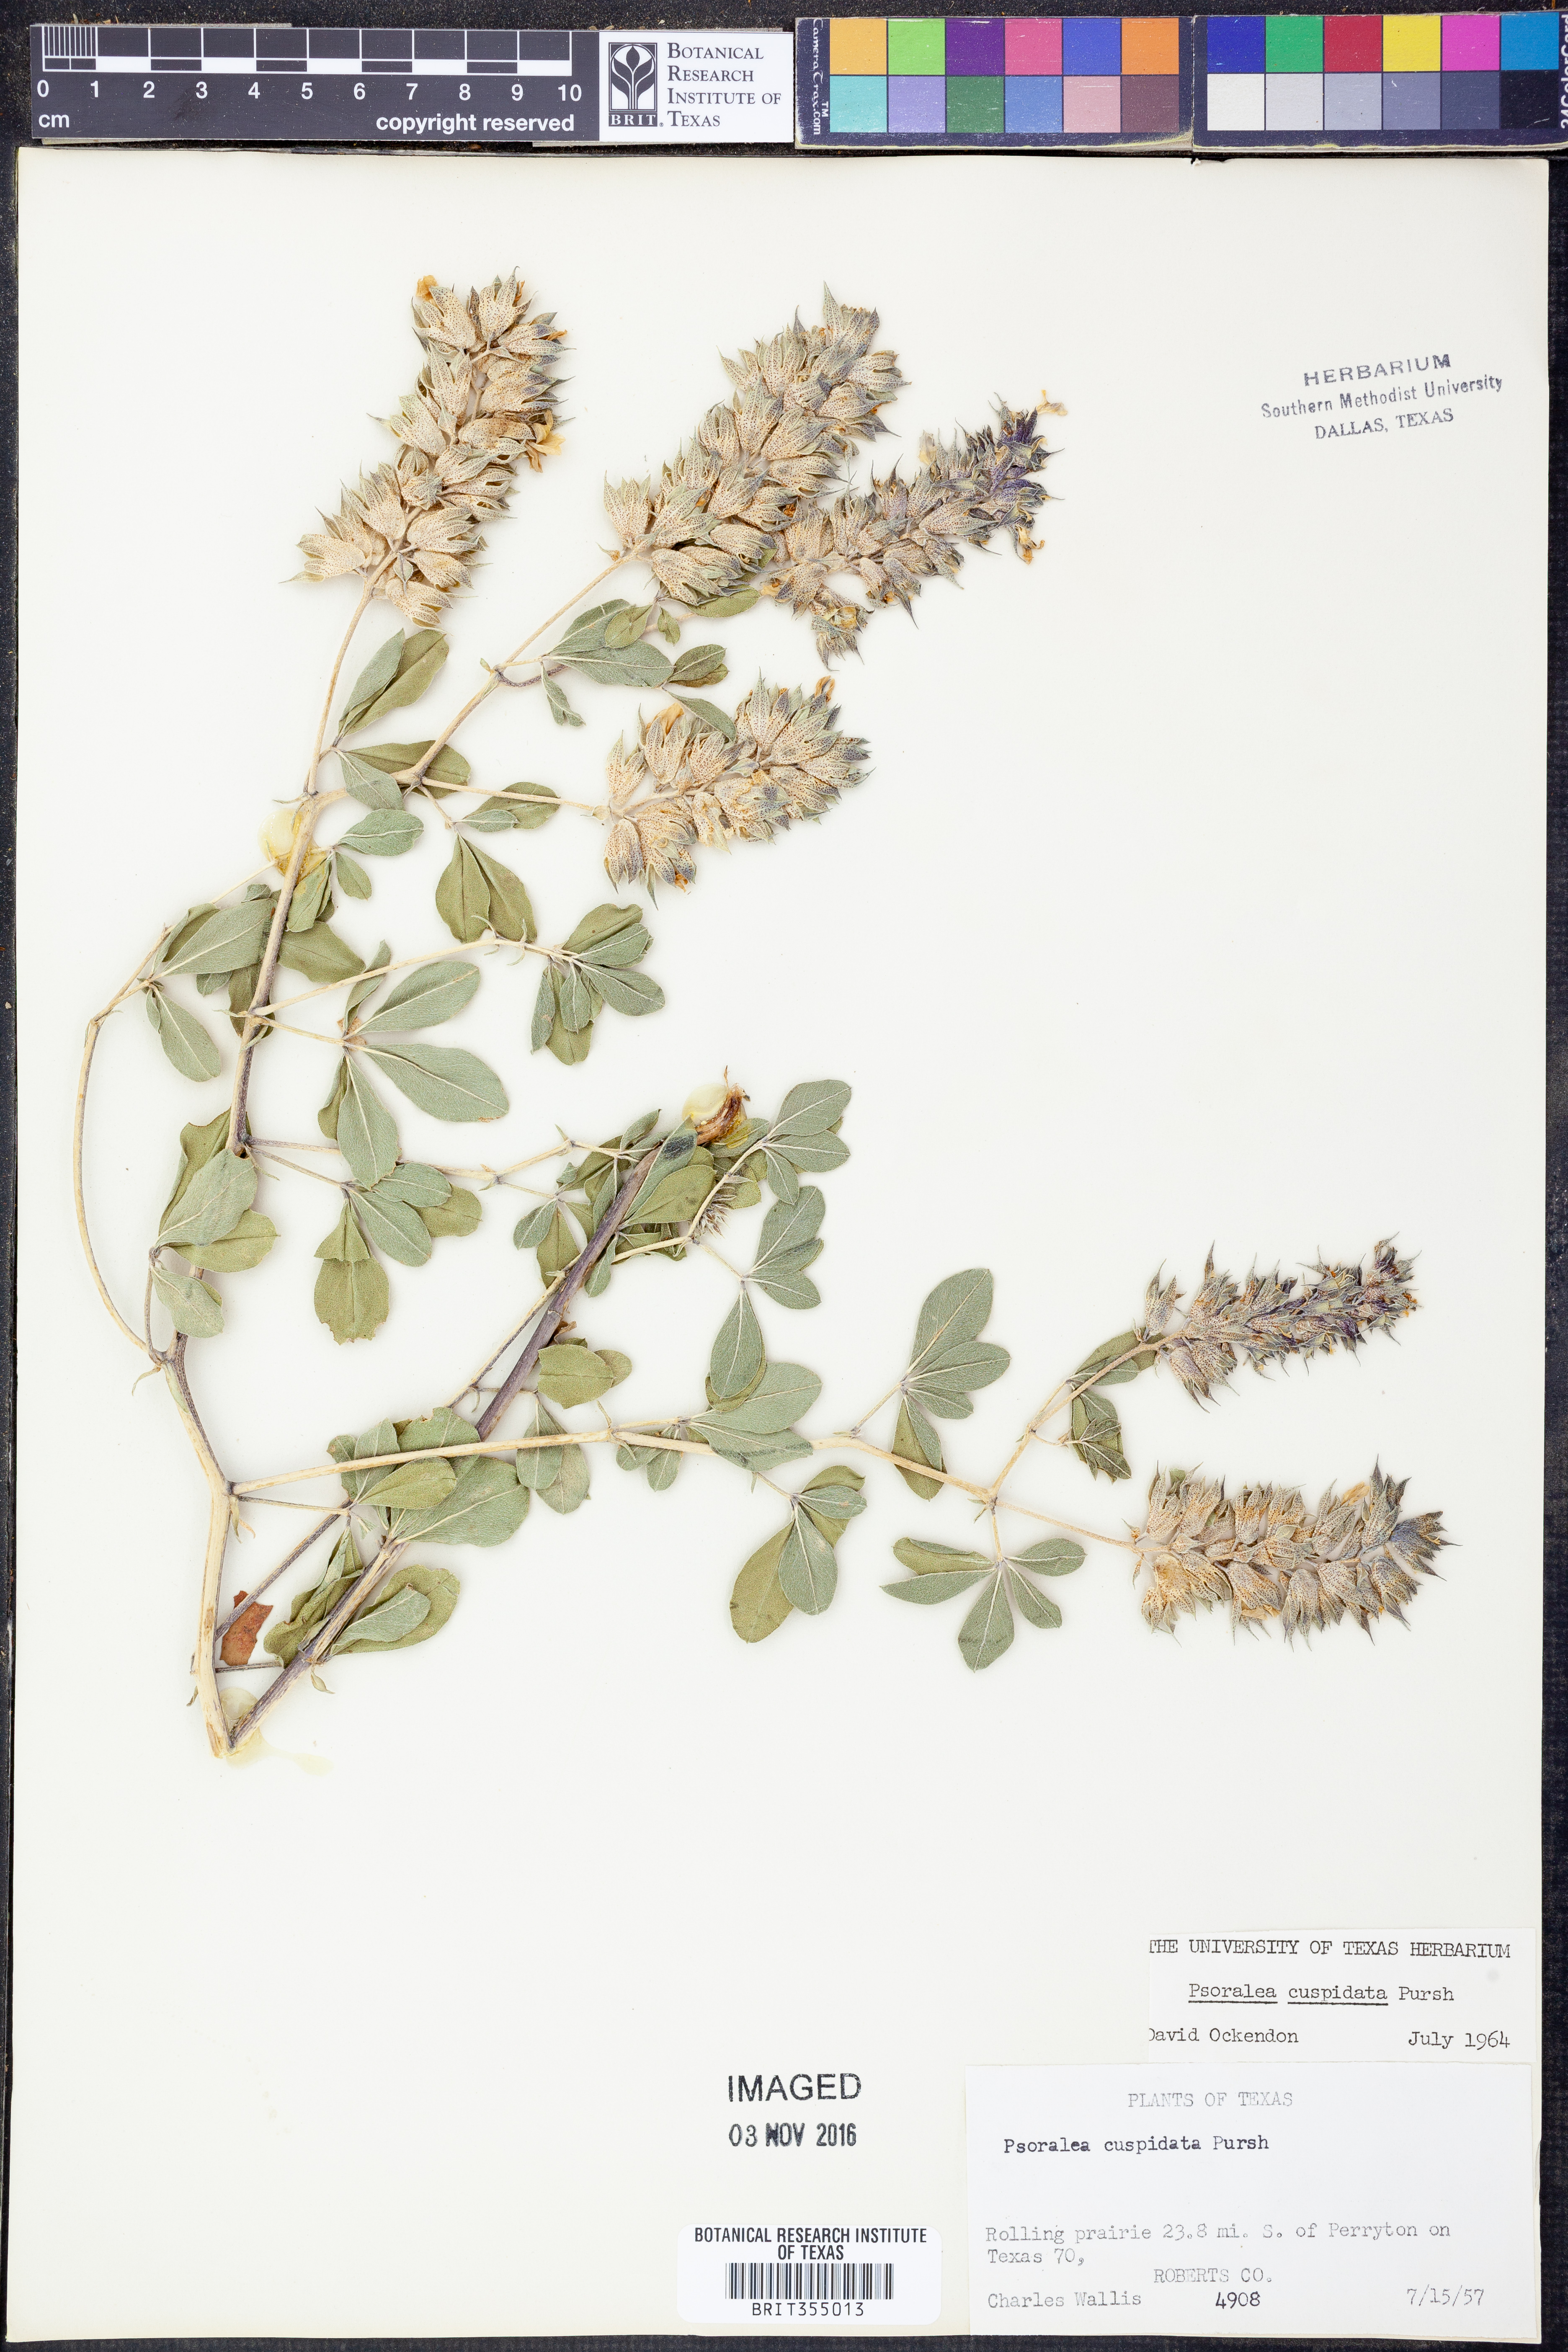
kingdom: Plantae
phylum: Tracheophyta
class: Magnoliopsida
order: Fabales
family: Fabaceae
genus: Pediomelum
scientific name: Pediomelum cuspidatum
